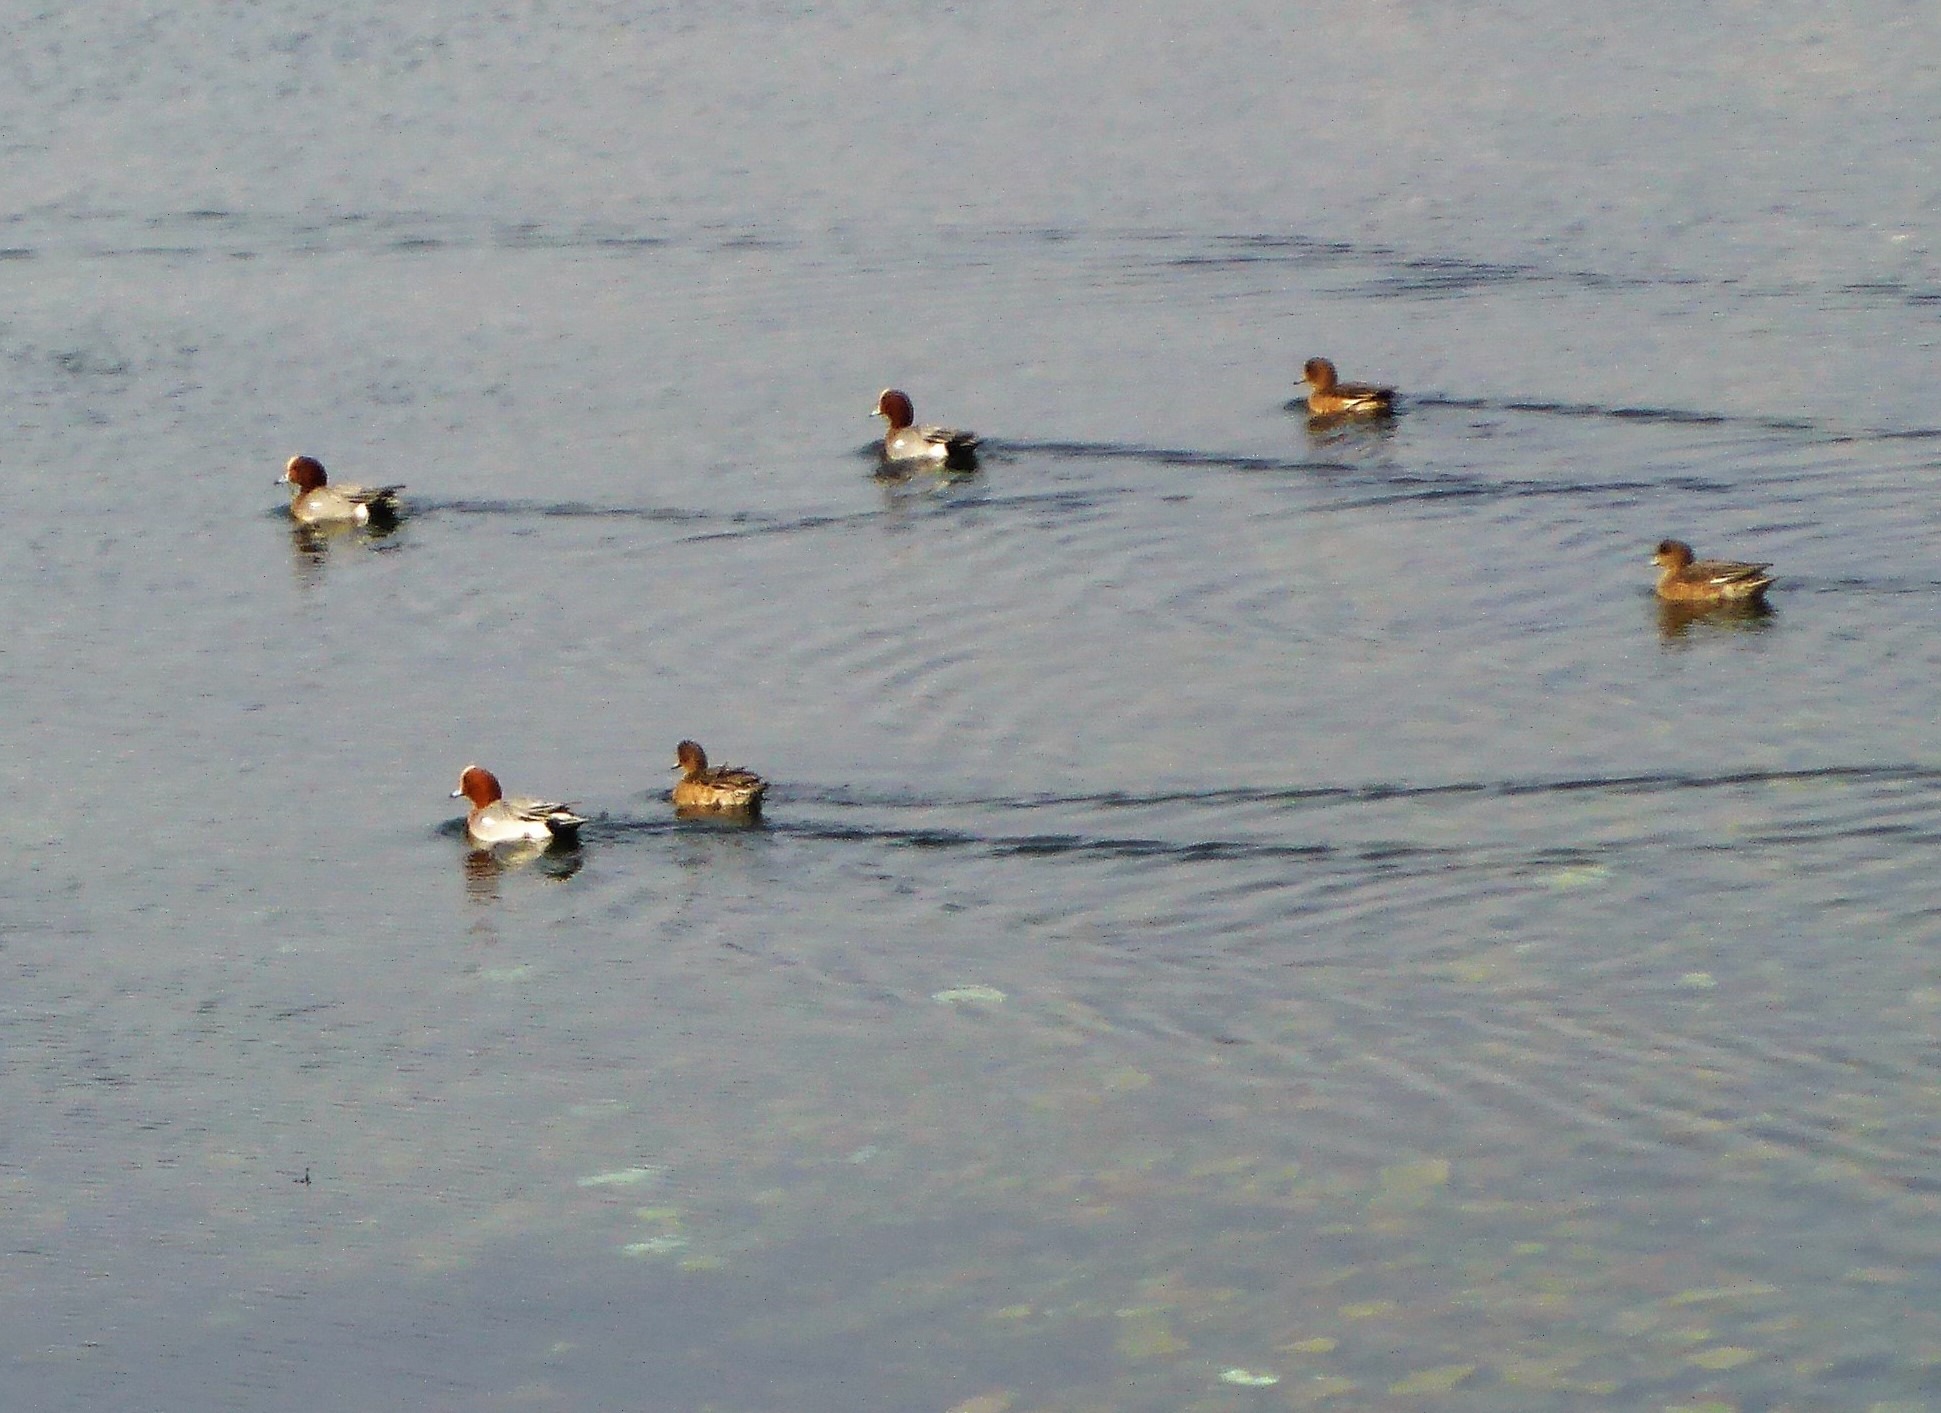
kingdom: Animalia
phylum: Chordata
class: Aves
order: Anseriformes
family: Anatidae
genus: Mareca
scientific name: Mareca penelope
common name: Pibeand
